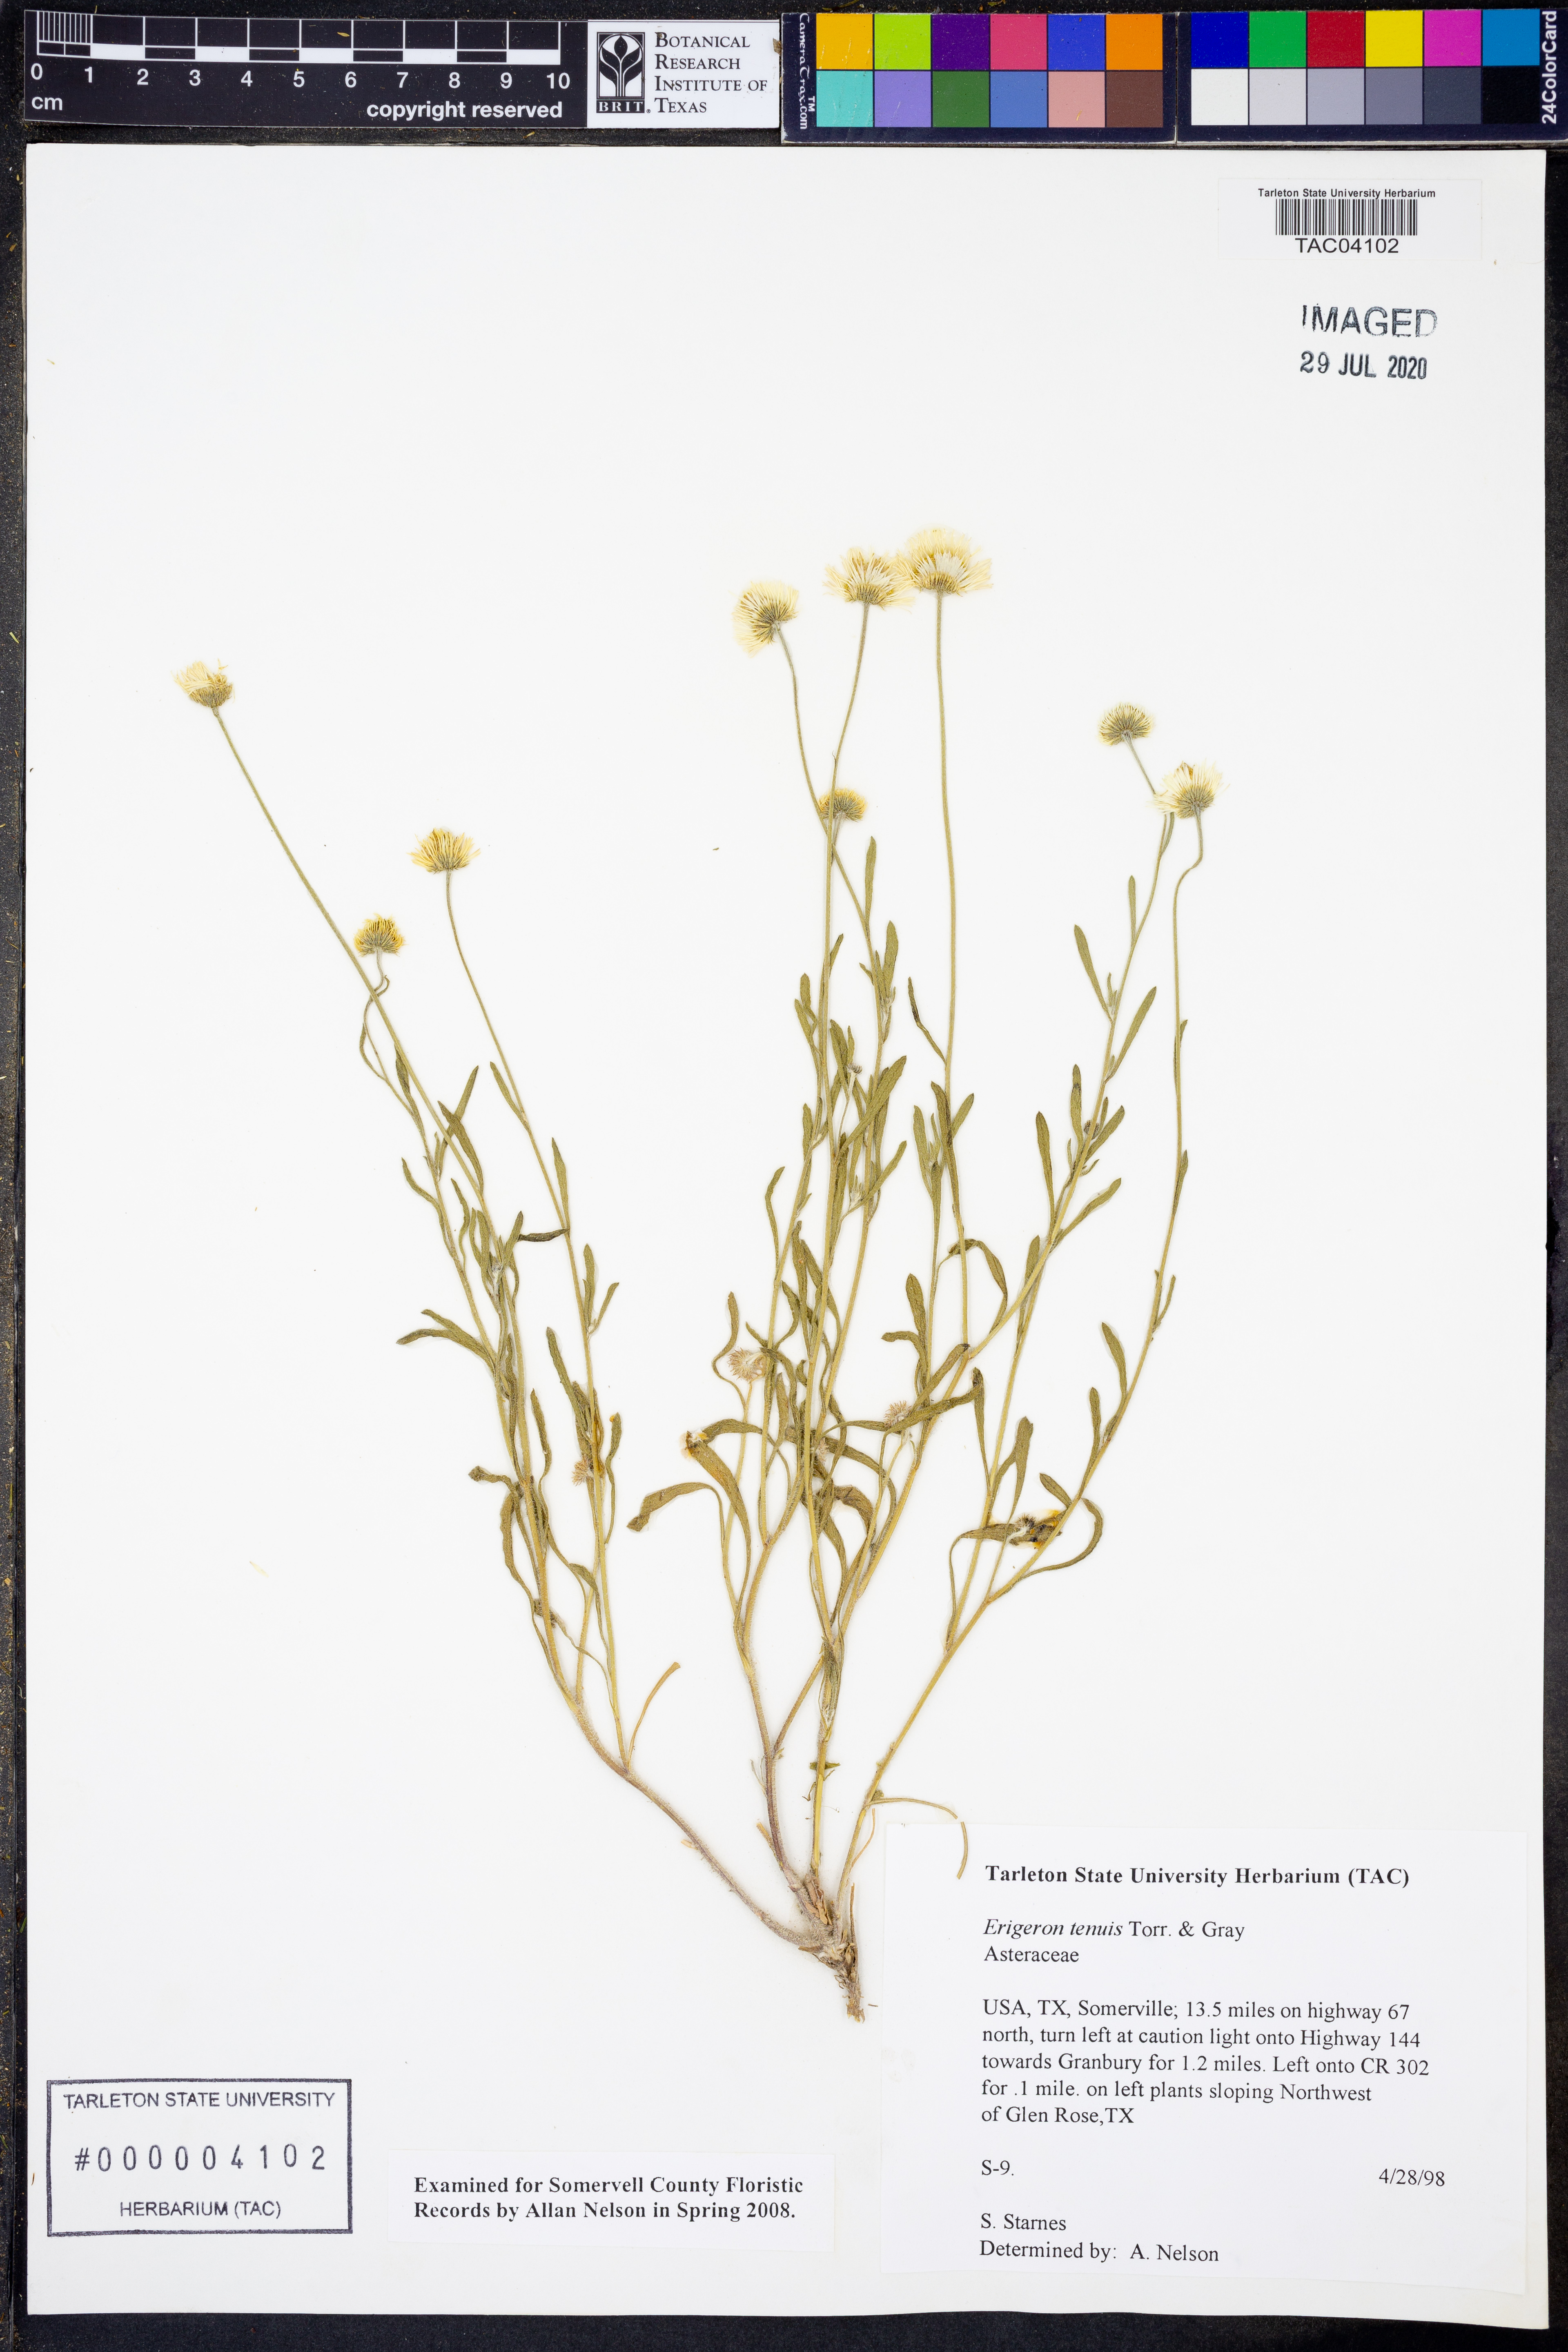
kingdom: Plantae
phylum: Tracheophyta
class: Magnoliopsida
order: Asterales
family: Asteraceae
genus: Erigeron
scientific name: Erigeron tenuis
